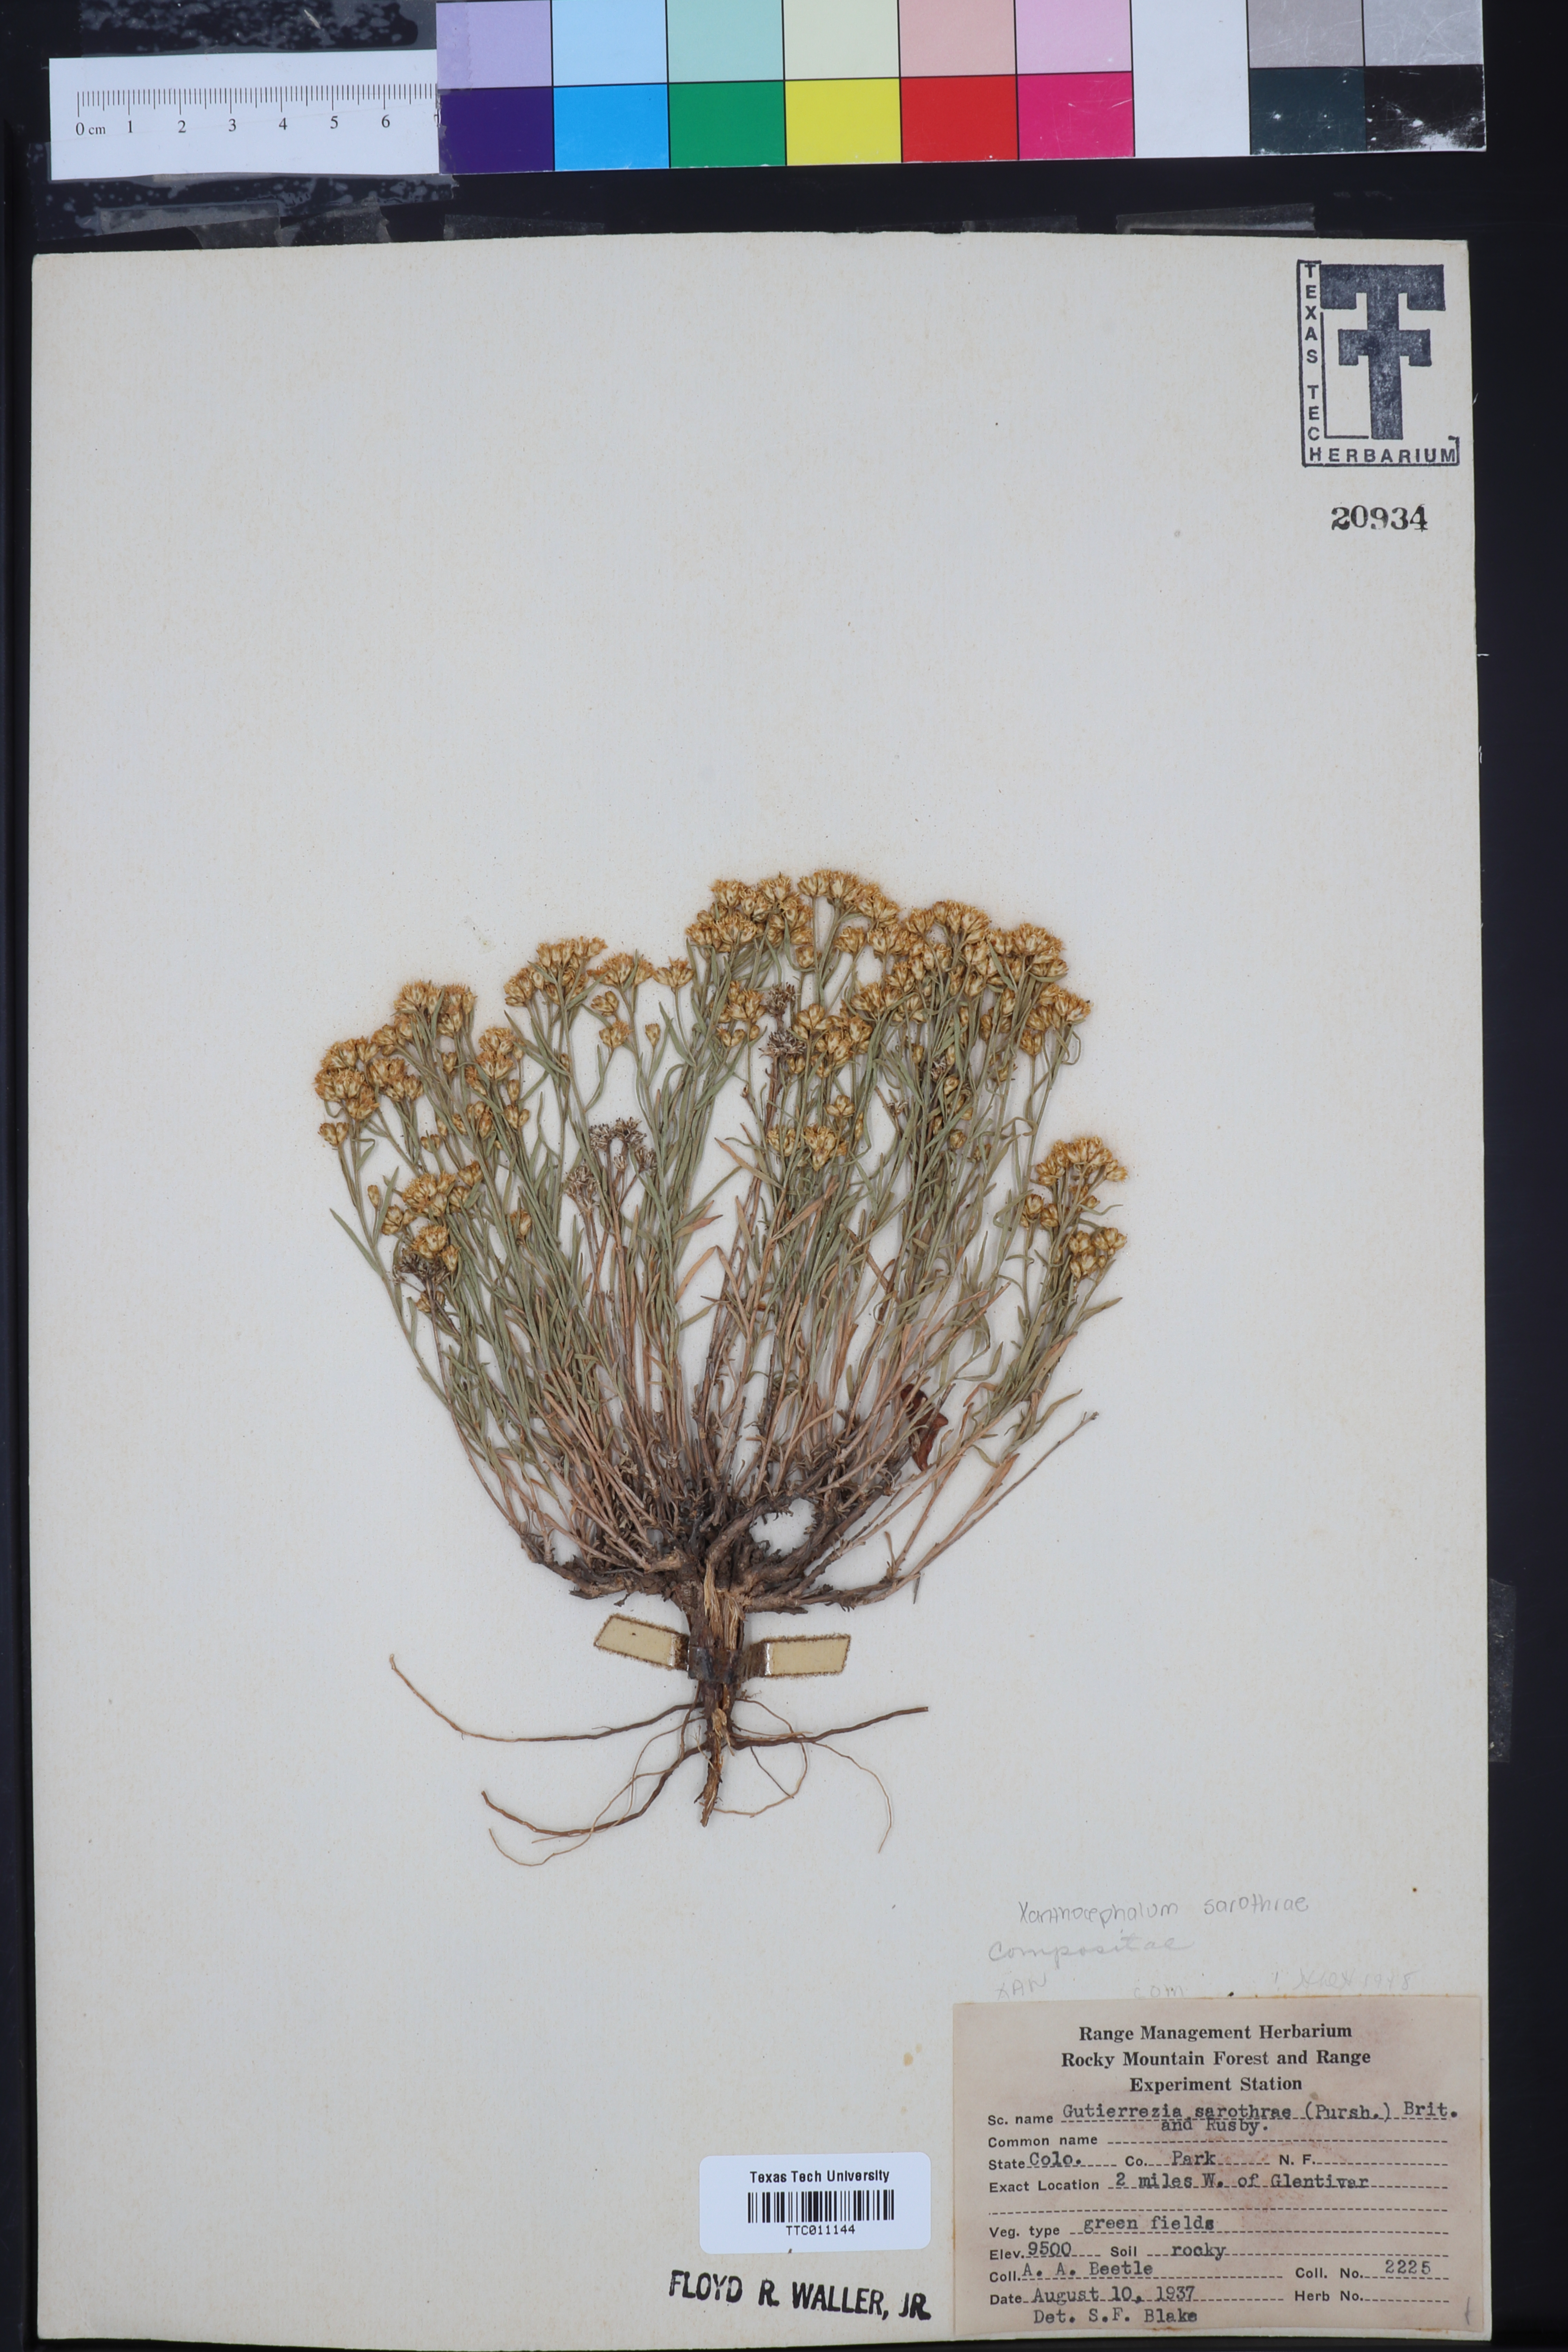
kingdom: Plantae
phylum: Tracheophyta
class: Magnoliopsida
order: Asterales
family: Asteraceae
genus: Gutierrezia
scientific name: Gutierrezia sarothrae
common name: Broom snakeweed
